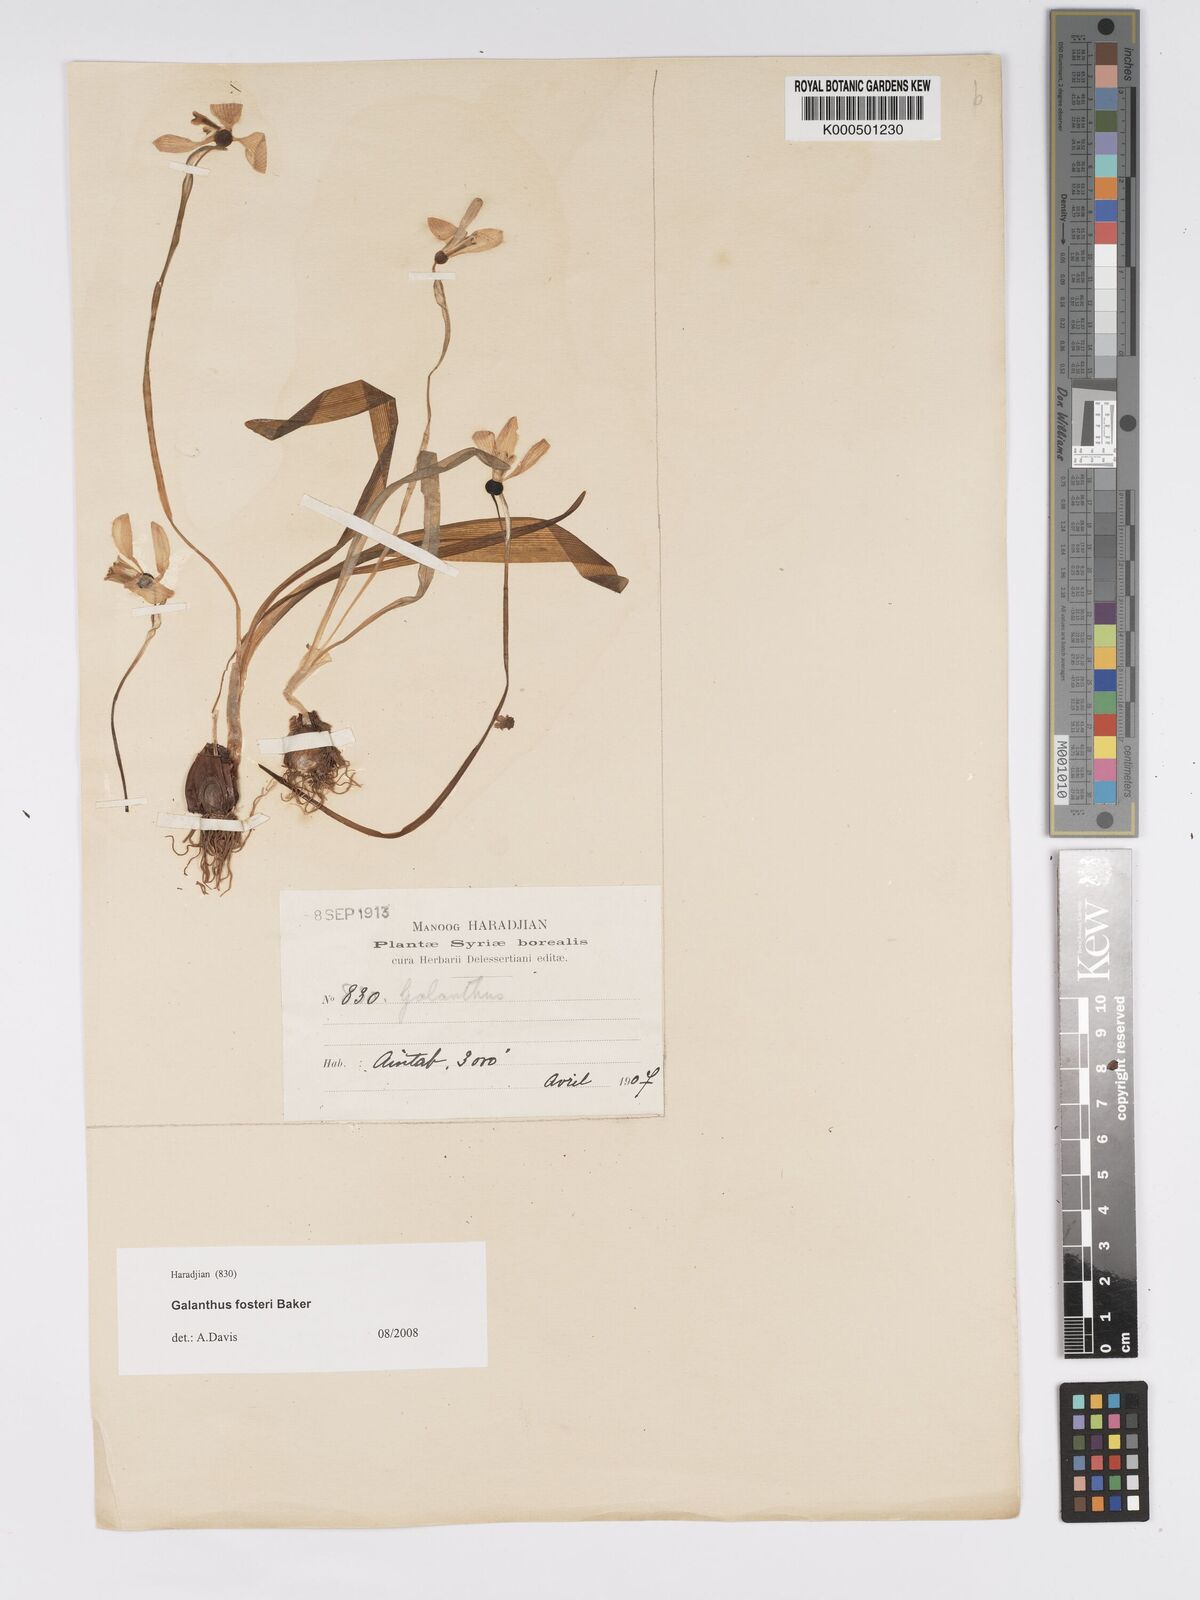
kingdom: Plantae
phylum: Tracheophyta
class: Liliopsida
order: Asparagales
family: Amaryllidaceae
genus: Galanthus
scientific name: Galanthus fosteri
